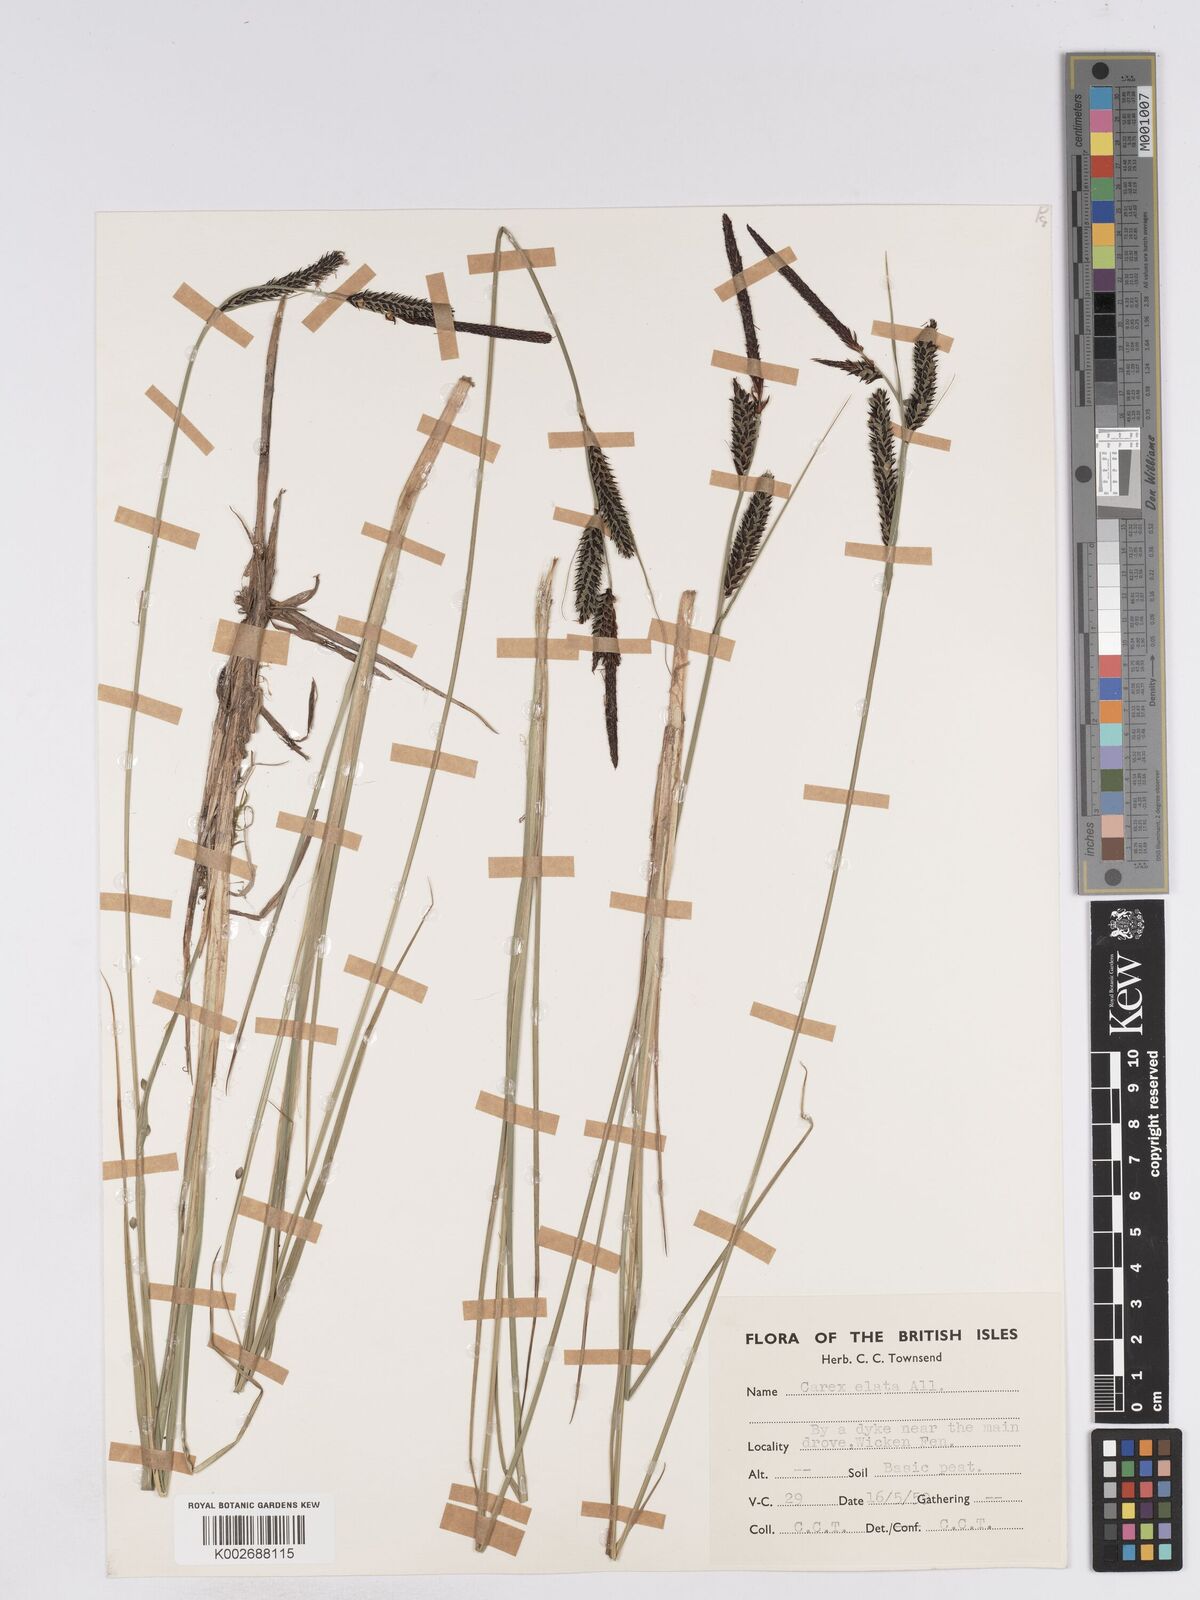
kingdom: Plantae
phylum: Tracheophyta
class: Liliopsida
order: Poales
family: Cyperaceae
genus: Carex
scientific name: Carex elata
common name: Tufted sedge
